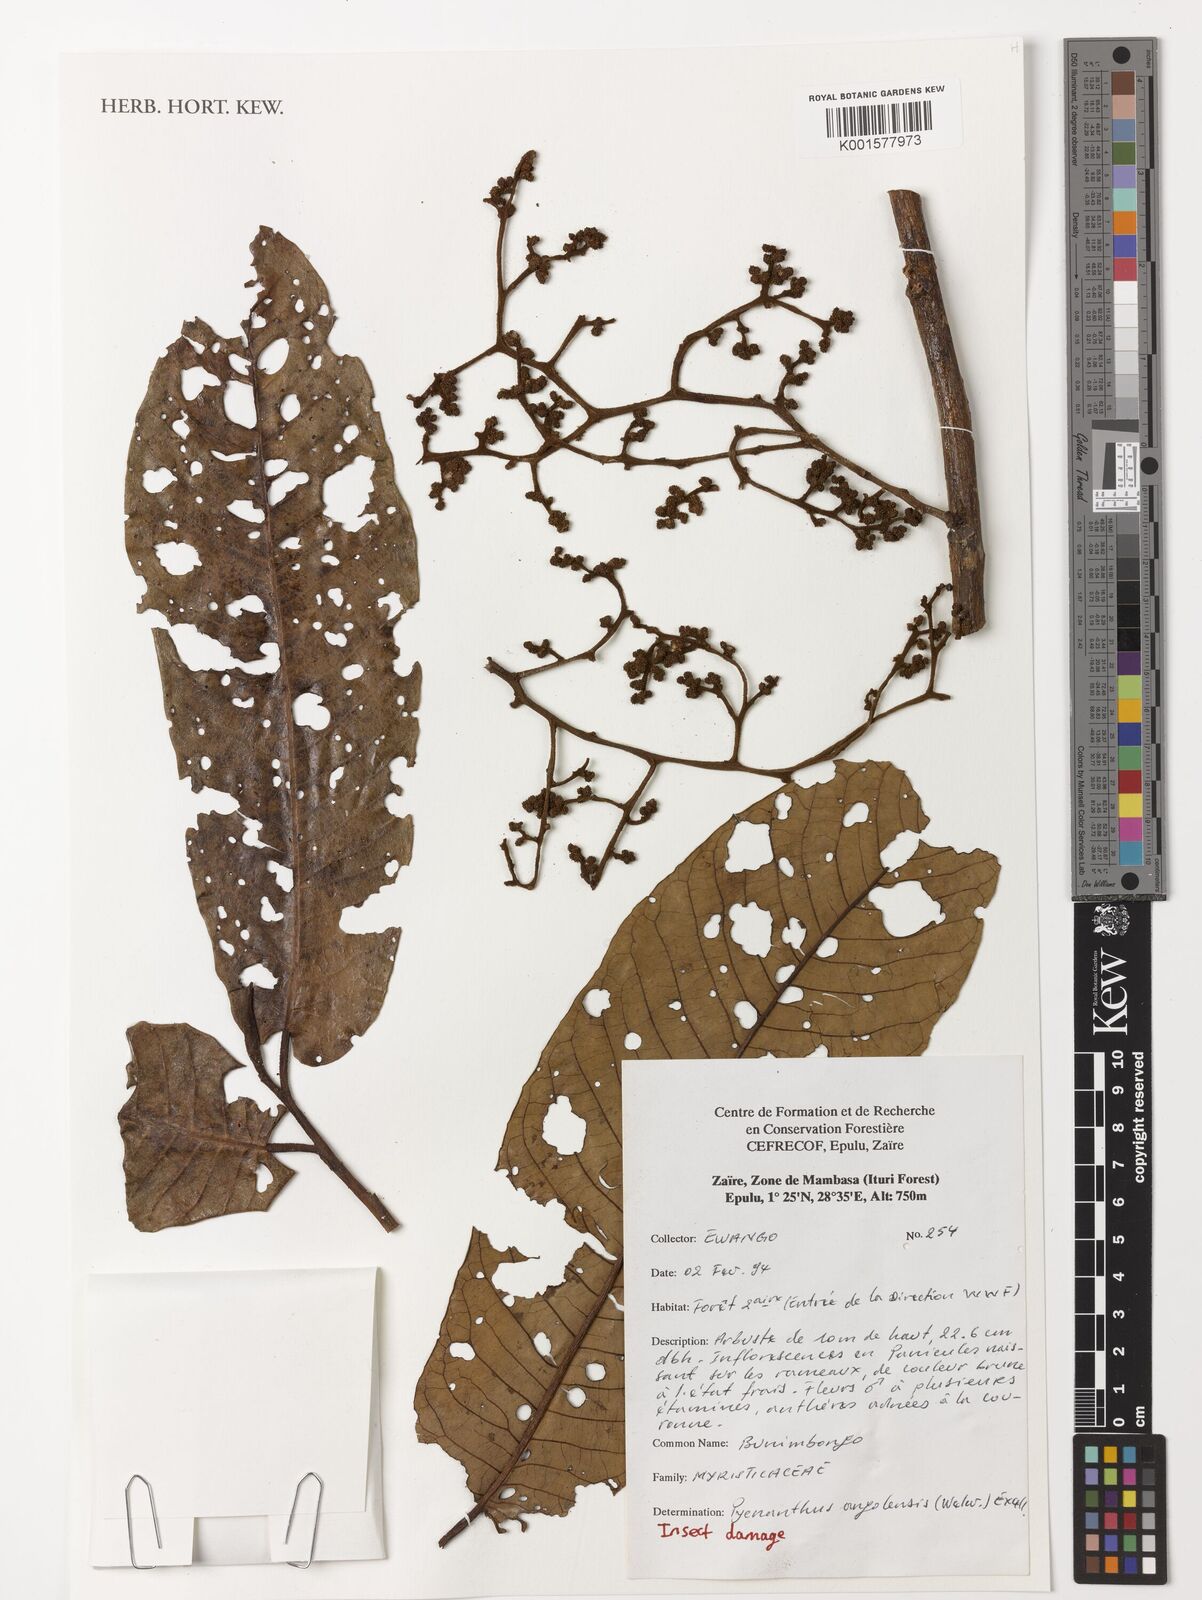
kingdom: Plantae
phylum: Tracheophyta
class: Magnoliopsida
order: Magnoliales
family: Myristicaceae
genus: Pycnanthus
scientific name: Pycnanthus angolensis
